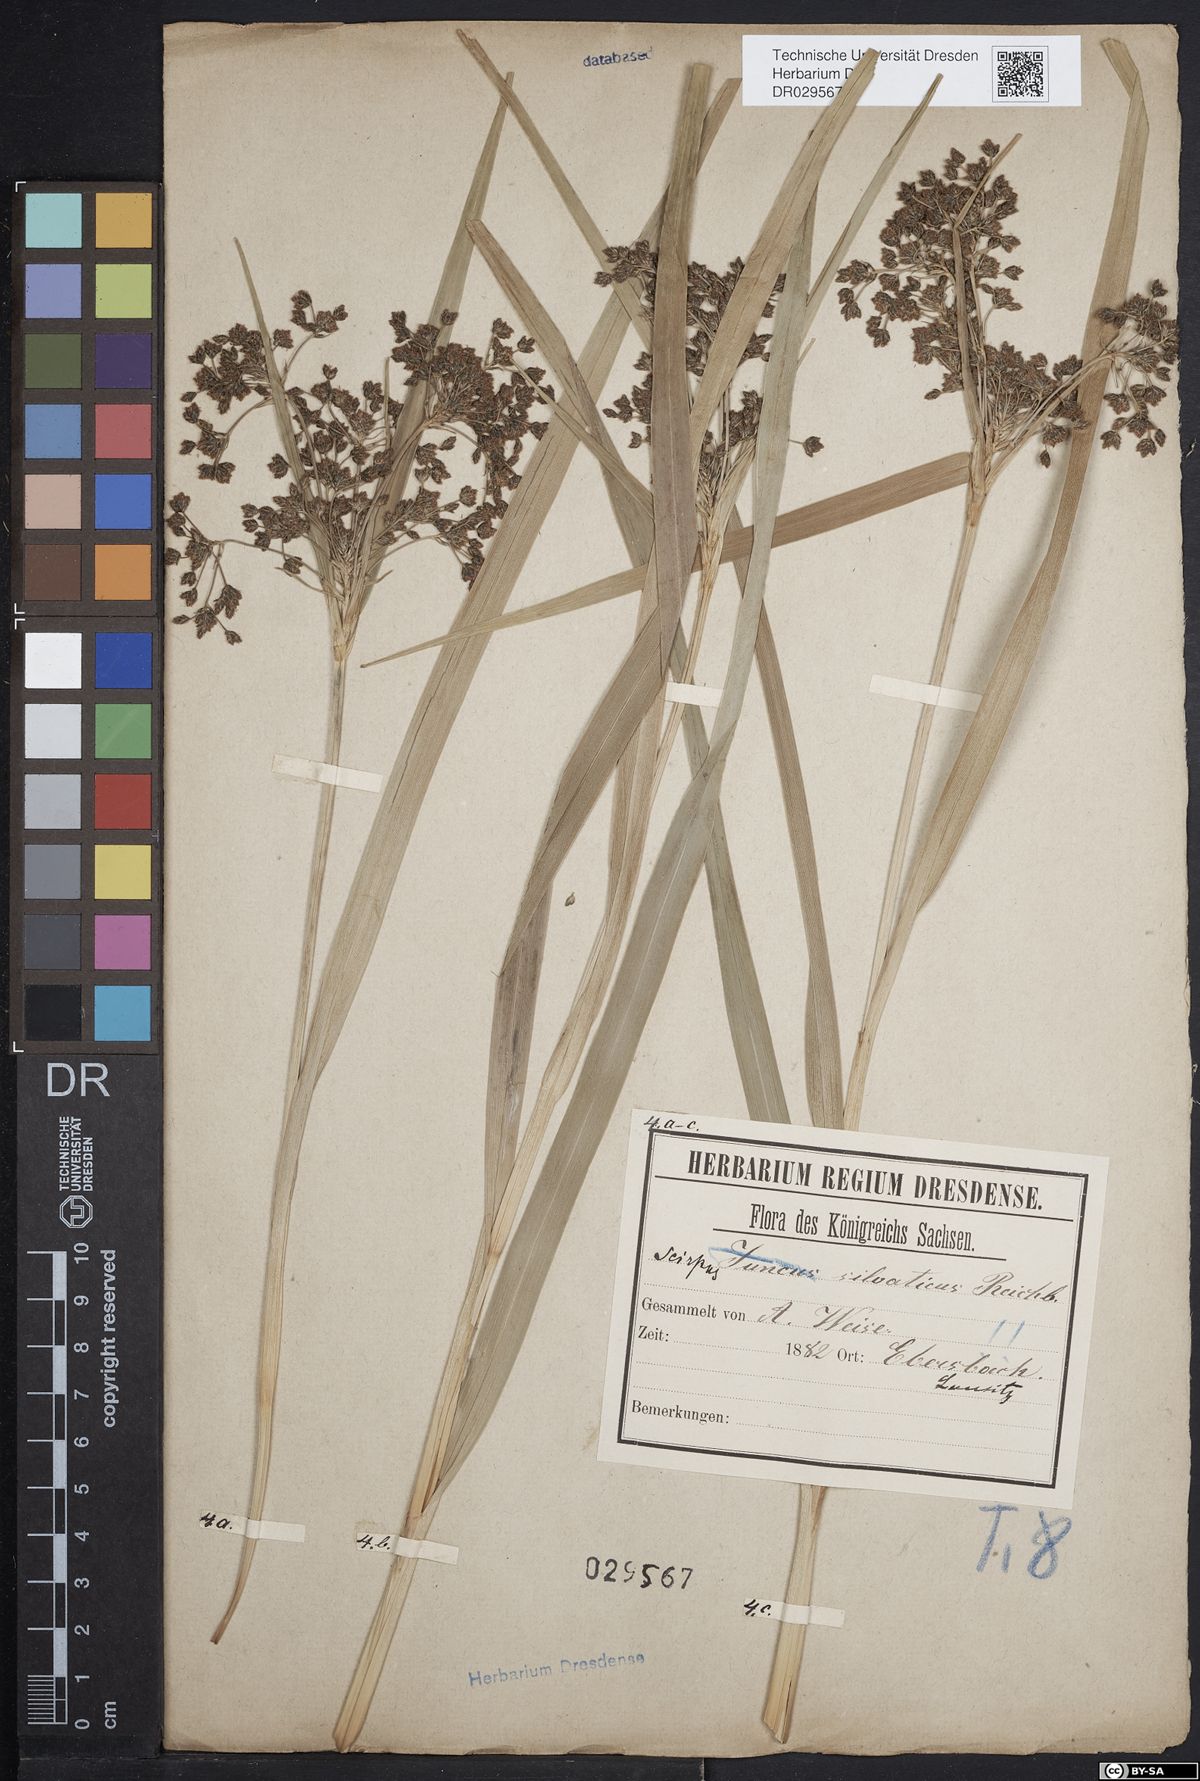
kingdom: Plantae
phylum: Tracheophyta
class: Liliopsida
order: Poales
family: Cyperaceae
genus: Scirpus
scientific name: Scirpus sylvaticus
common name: Wood club-rush
